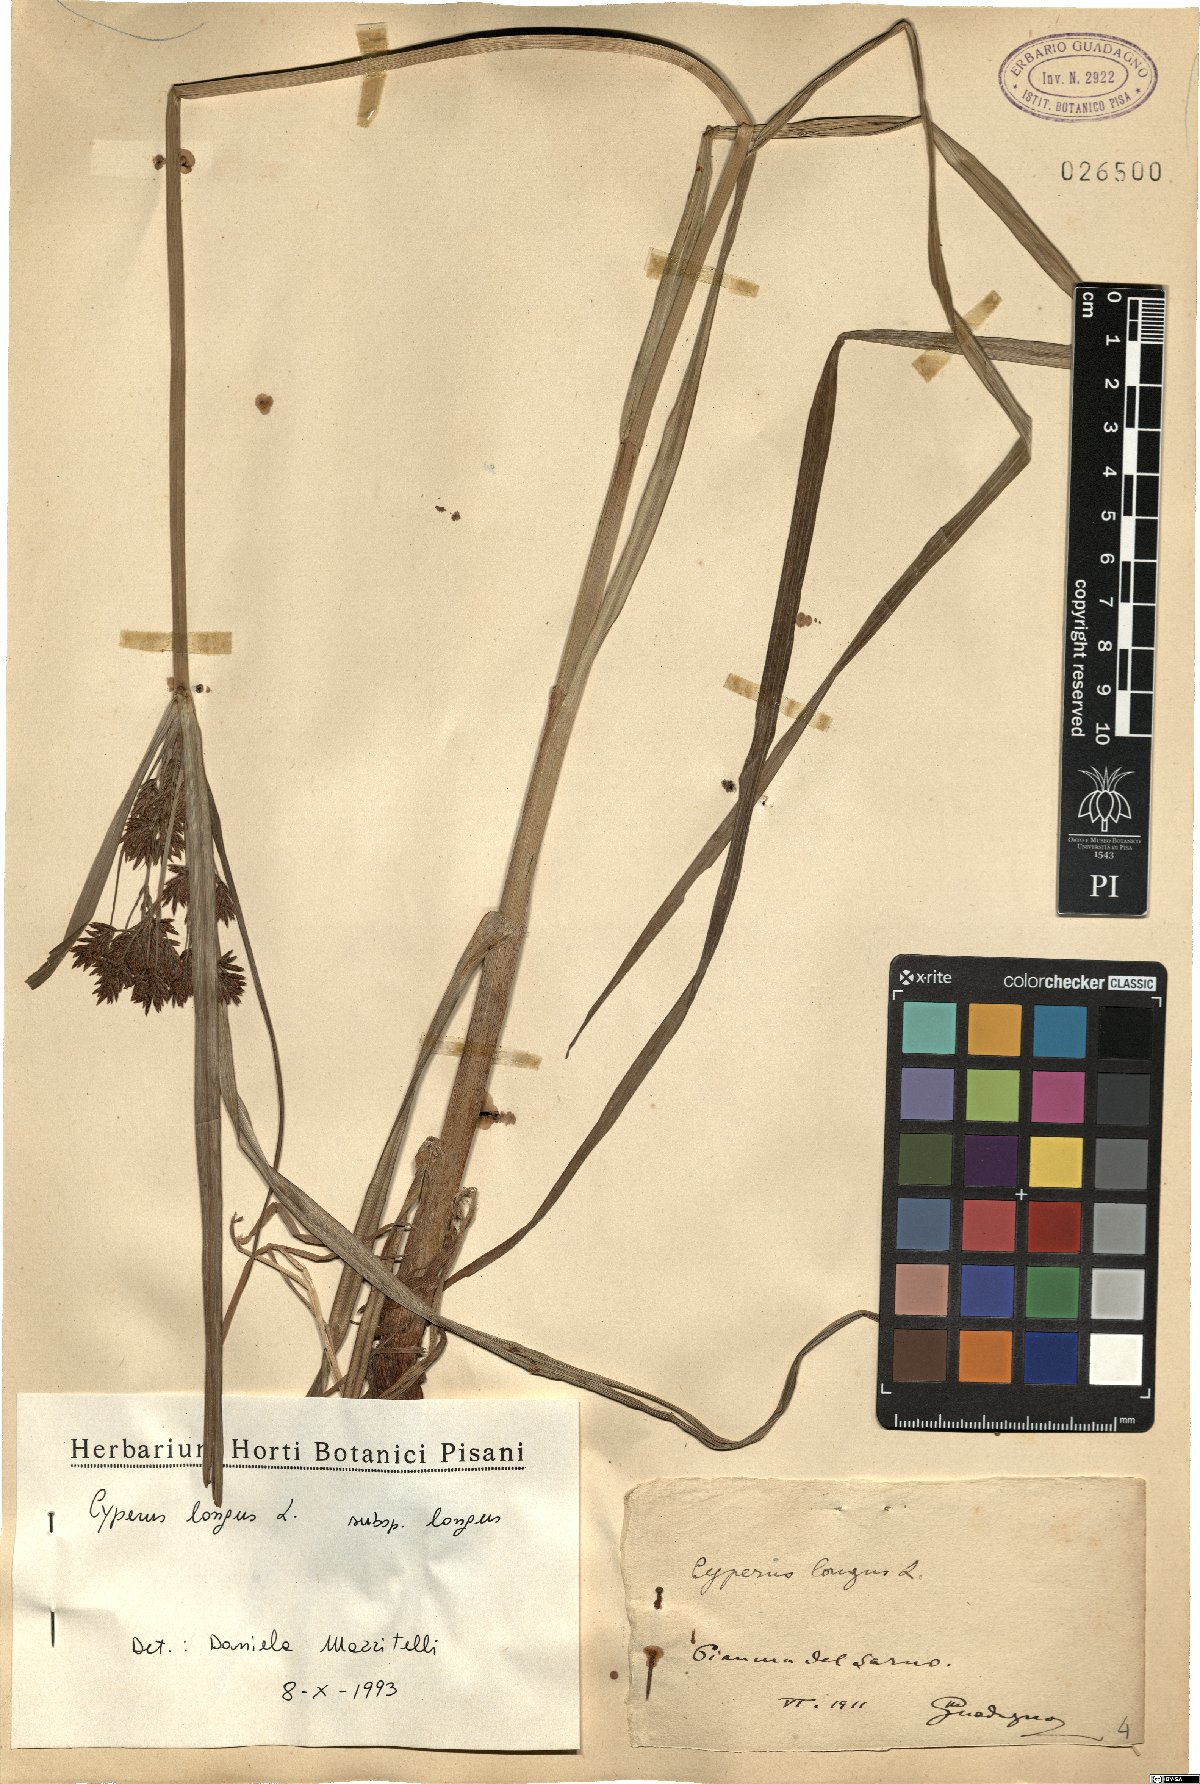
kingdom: Plantae
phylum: Tracheophyta
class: Liliopsida
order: Poales
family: Cyperaceae
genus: Cyperus
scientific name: Cyperus longus
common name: Galingale
